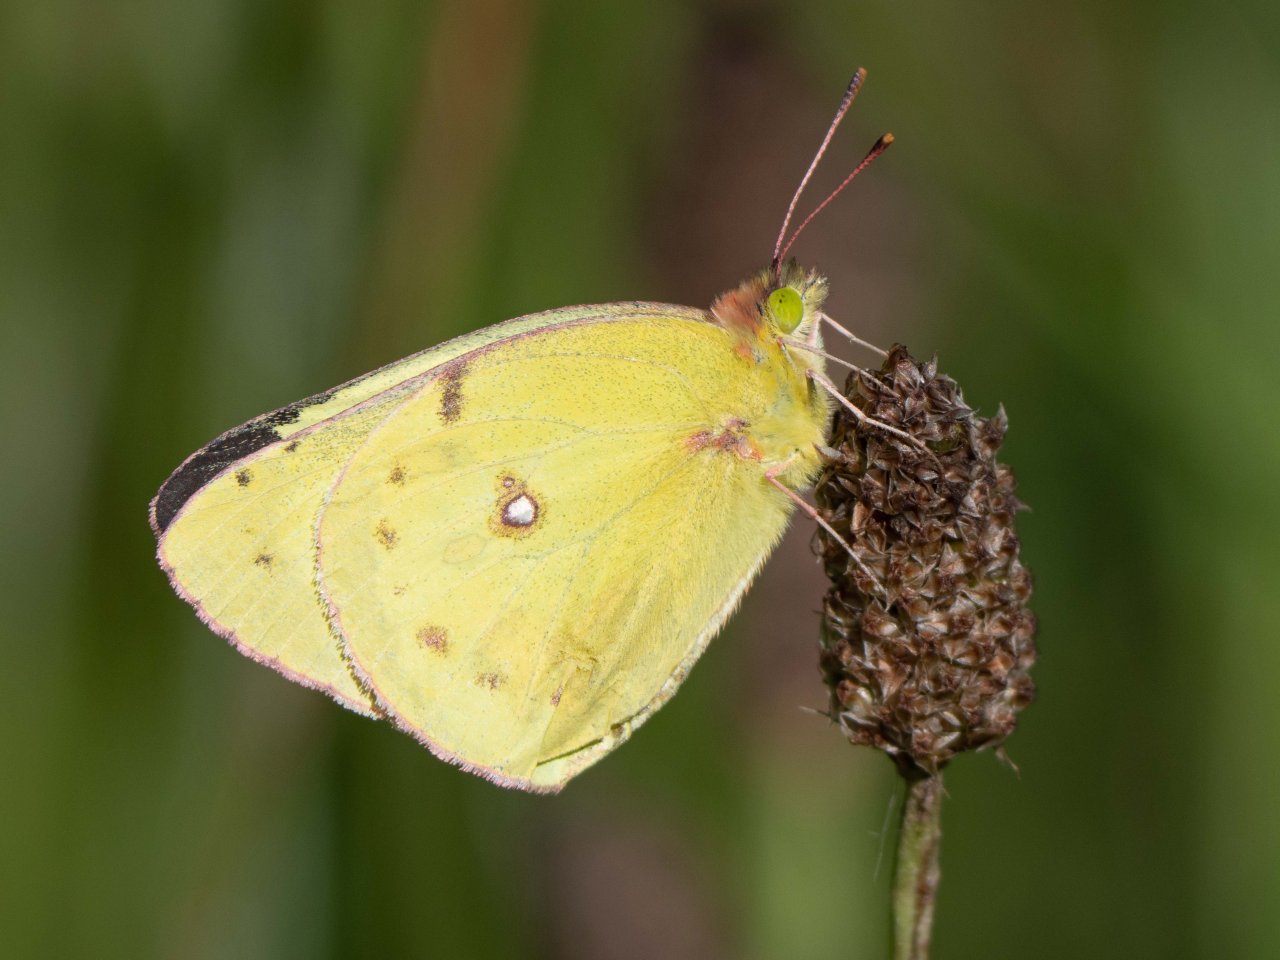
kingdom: Animalia
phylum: Arthropoda
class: Insecta
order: Lepidoptera
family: Pieridae
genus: Colias
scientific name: Colias philodice
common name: Clouded Sulphur
